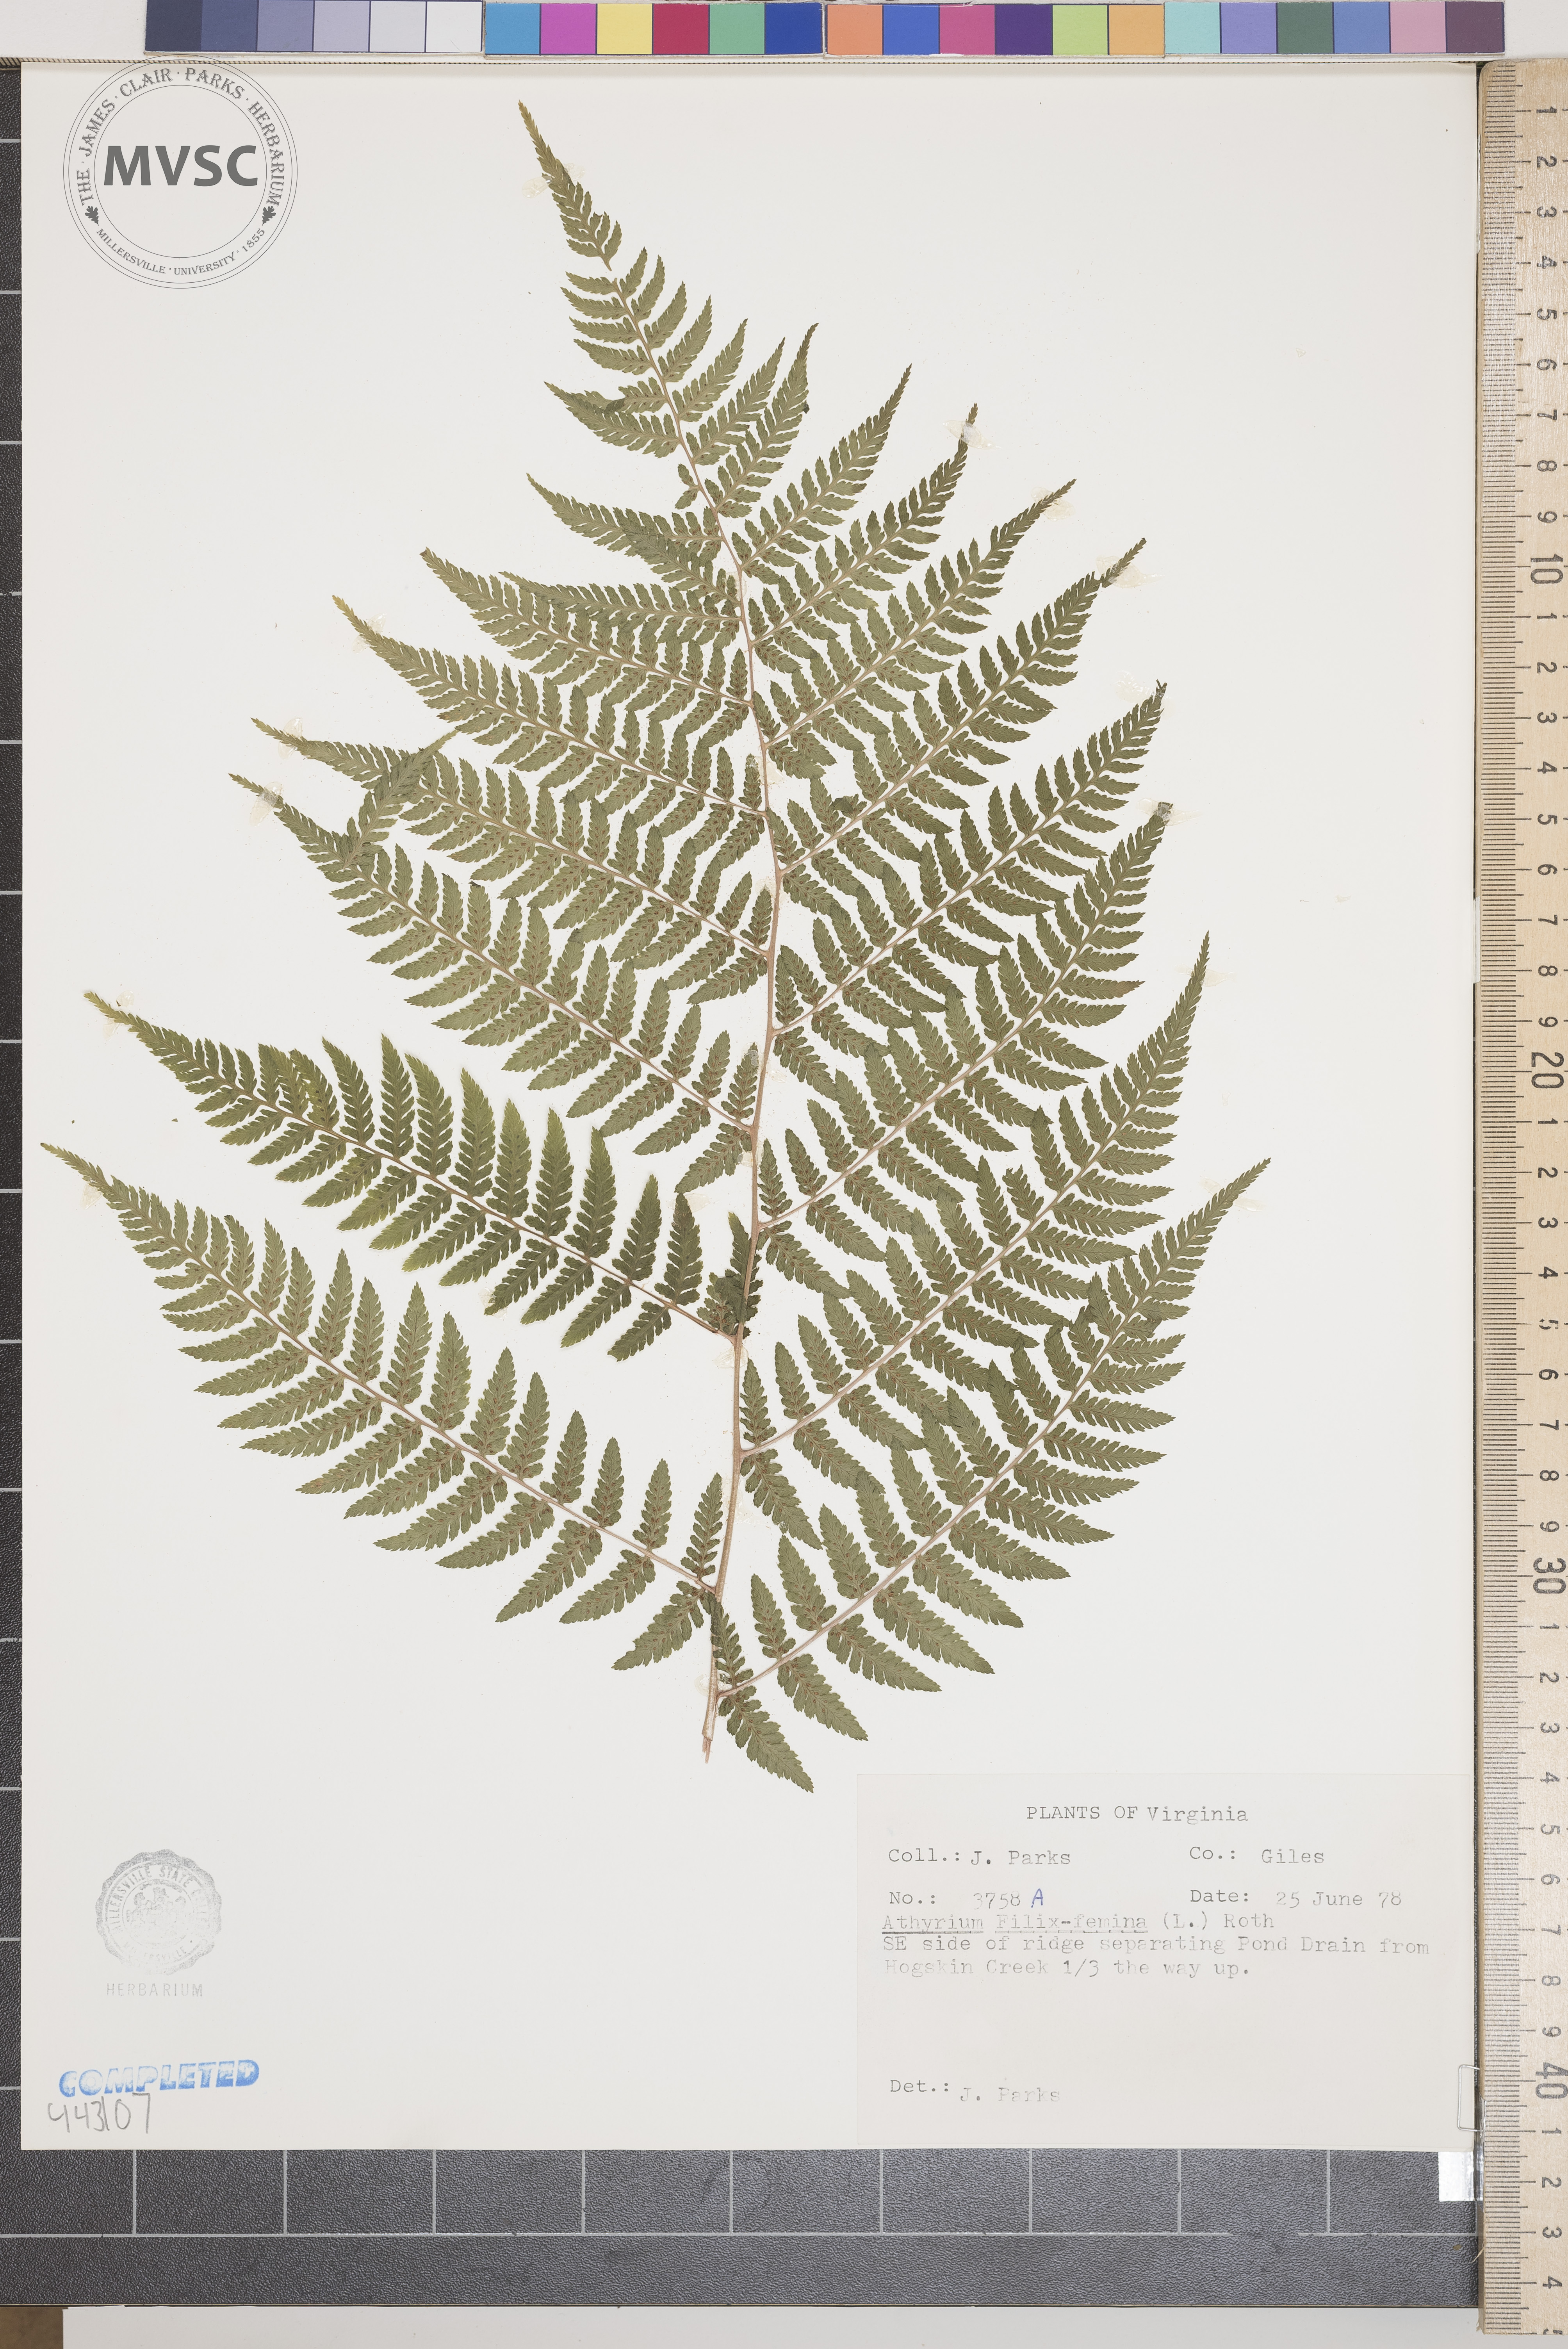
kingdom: Plantae
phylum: Tracheophyta
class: Polypodiopsida
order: Polypodiales
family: Athyriaceae
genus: Athyrium
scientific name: Athyrium filix-femina
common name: Lady fern
